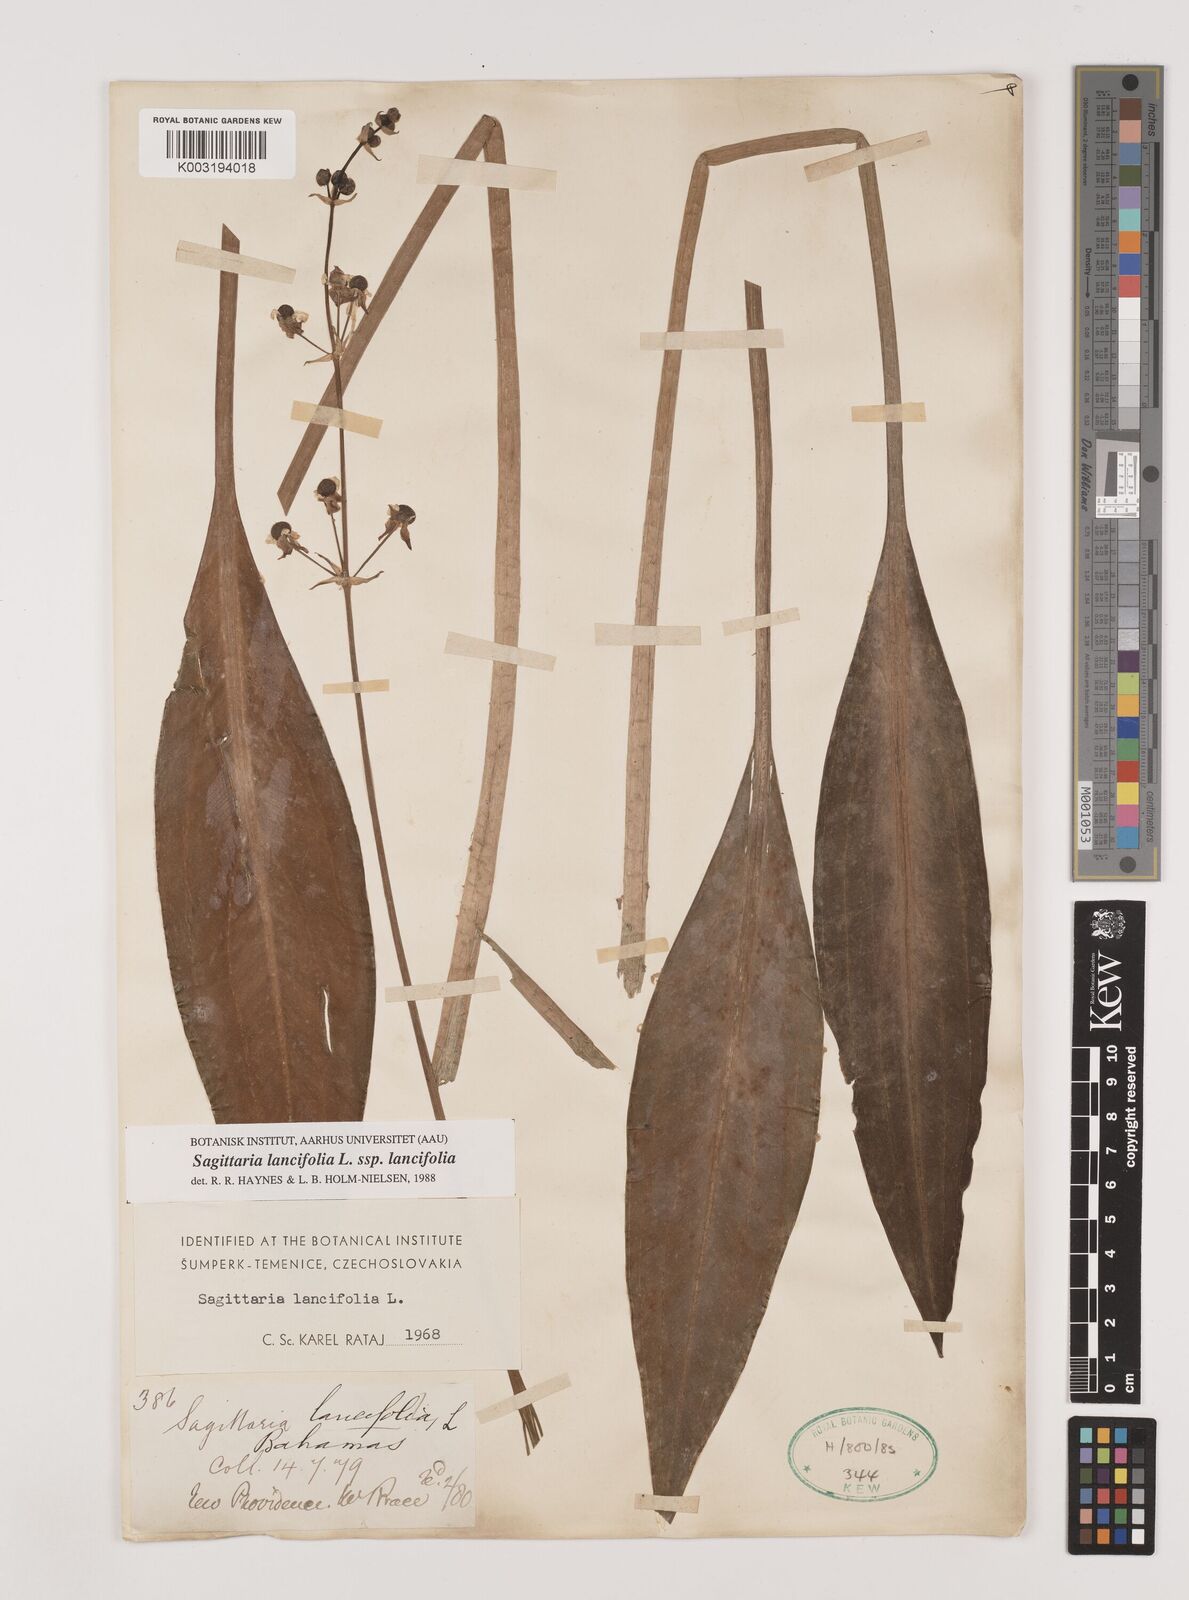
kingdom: Plantae
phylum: Tracheophyta
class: Liliopsida
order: Alismatales
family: Alismataceae
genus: Sagittaria
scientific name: Sagittaria lancifolia
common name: Lance-leaf arrowhead
